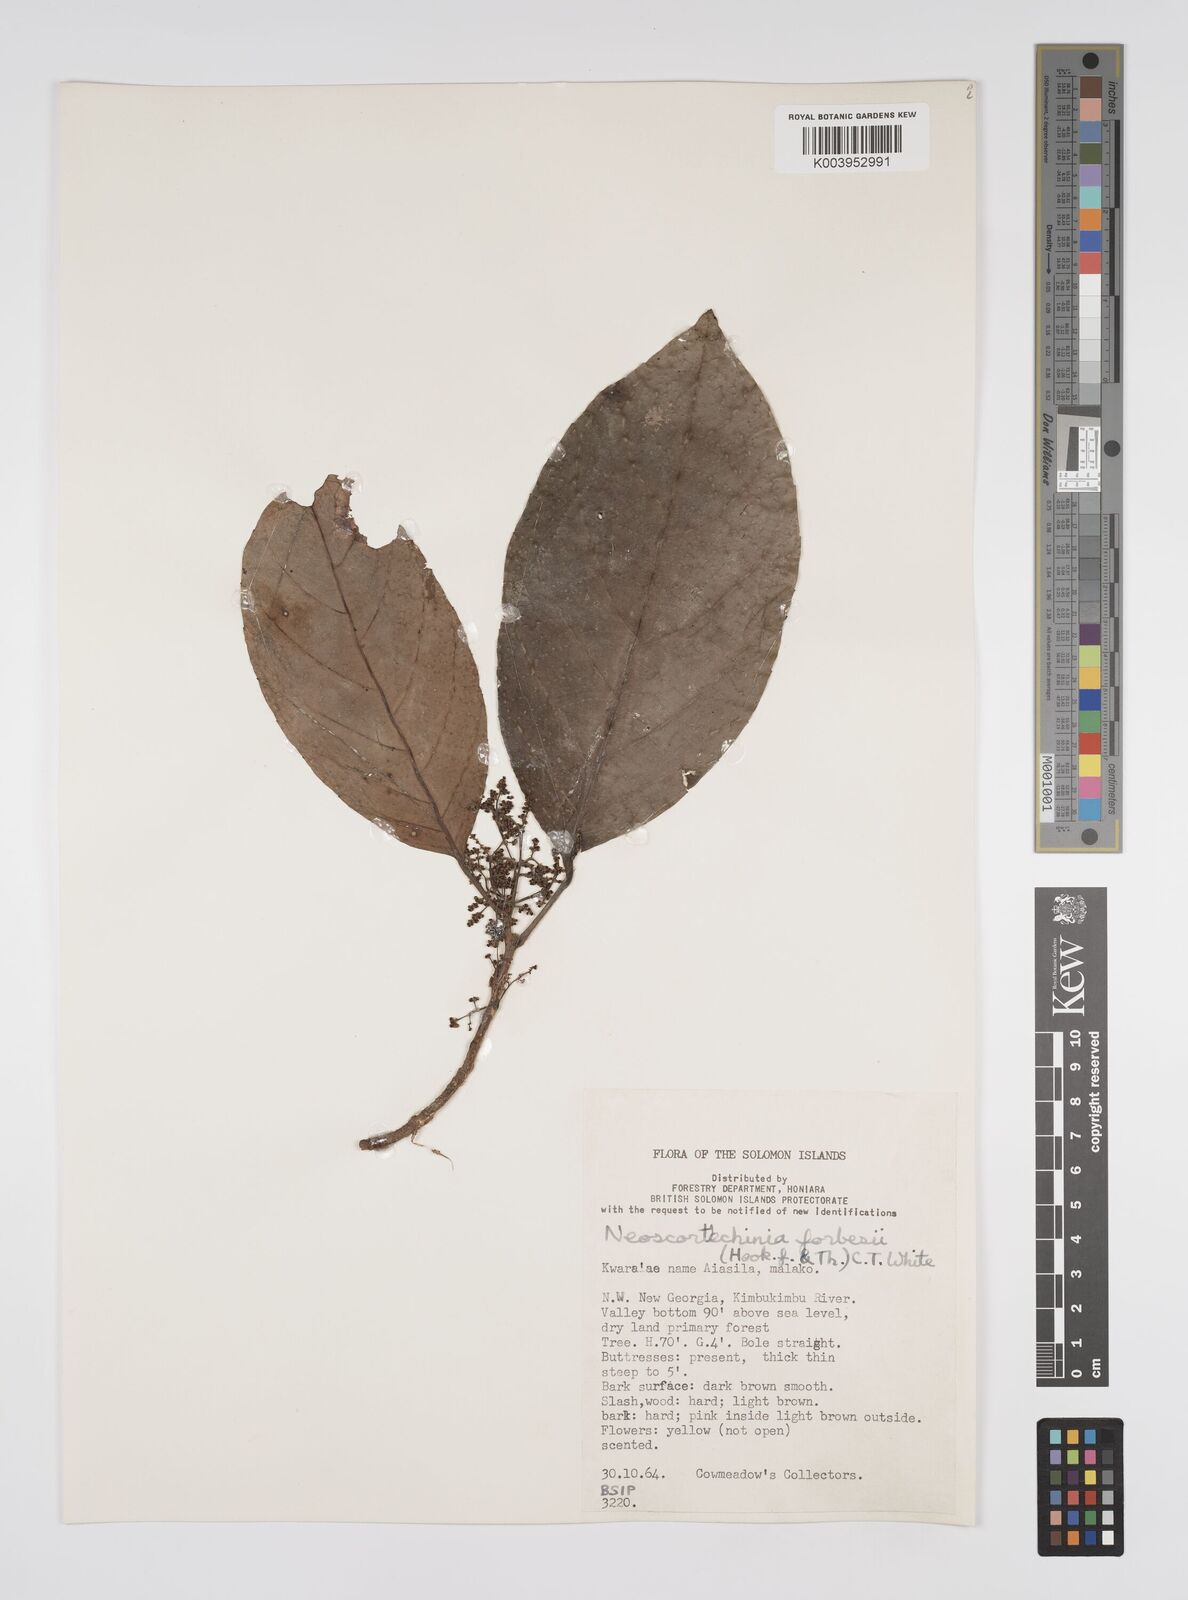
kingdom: Plantae
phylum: Tracheophyta
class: Magnoliopsida
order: Malpighiales
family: Euphorbiaceae
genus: Neoscortechinia
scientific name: Neoscortechinia forbesii
